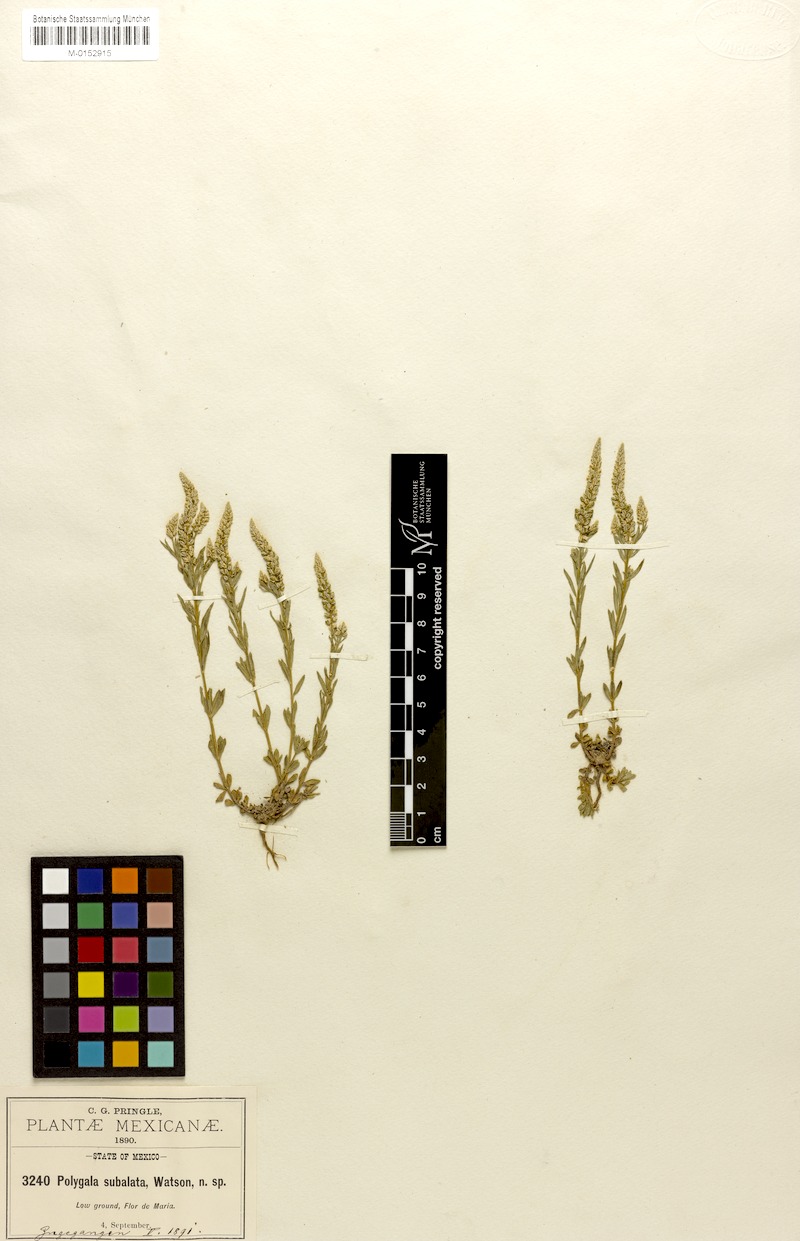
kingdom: Plantae
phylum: Tracheophyta
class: Magnoliopsida
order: Fabales
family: Polygalaceae
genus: Polygala
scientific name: Polygala subalata
